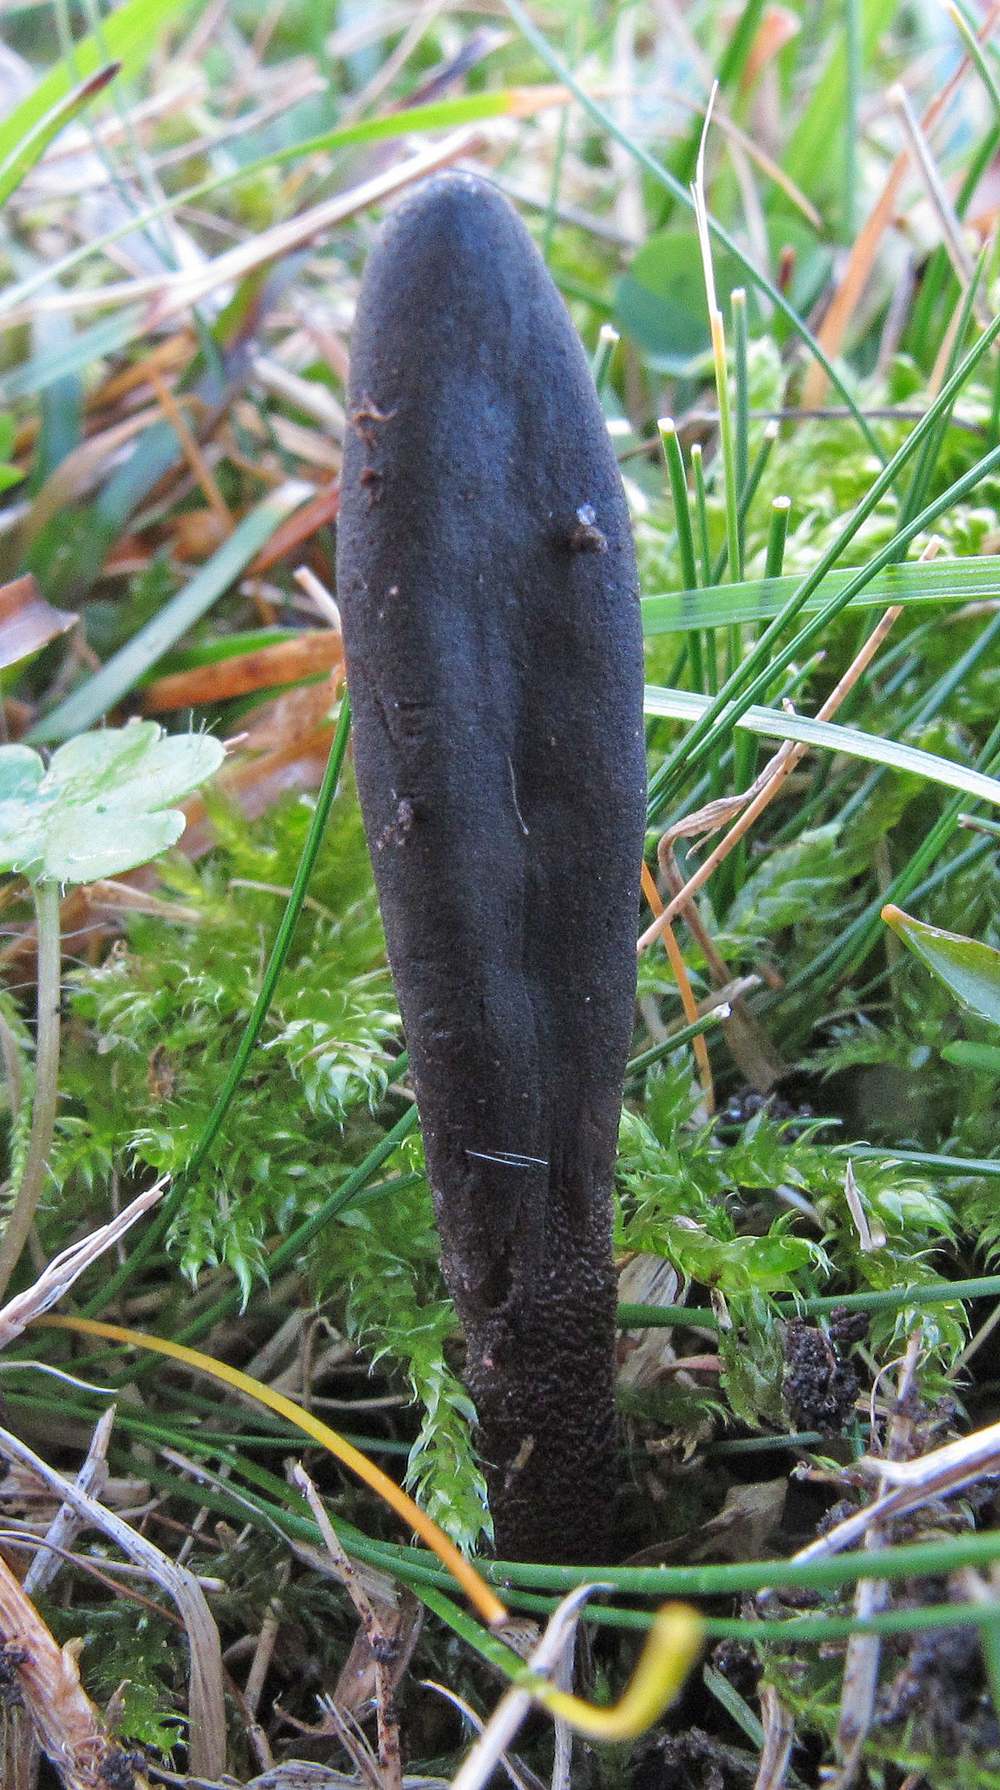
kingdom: Fungi
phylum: Ascomycota
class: Geoglossomycetes
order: Geoglossales
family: Geoglossaceae
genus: Geoglossum
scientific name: Geoglossum fallax
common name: småskællet jordtunge
